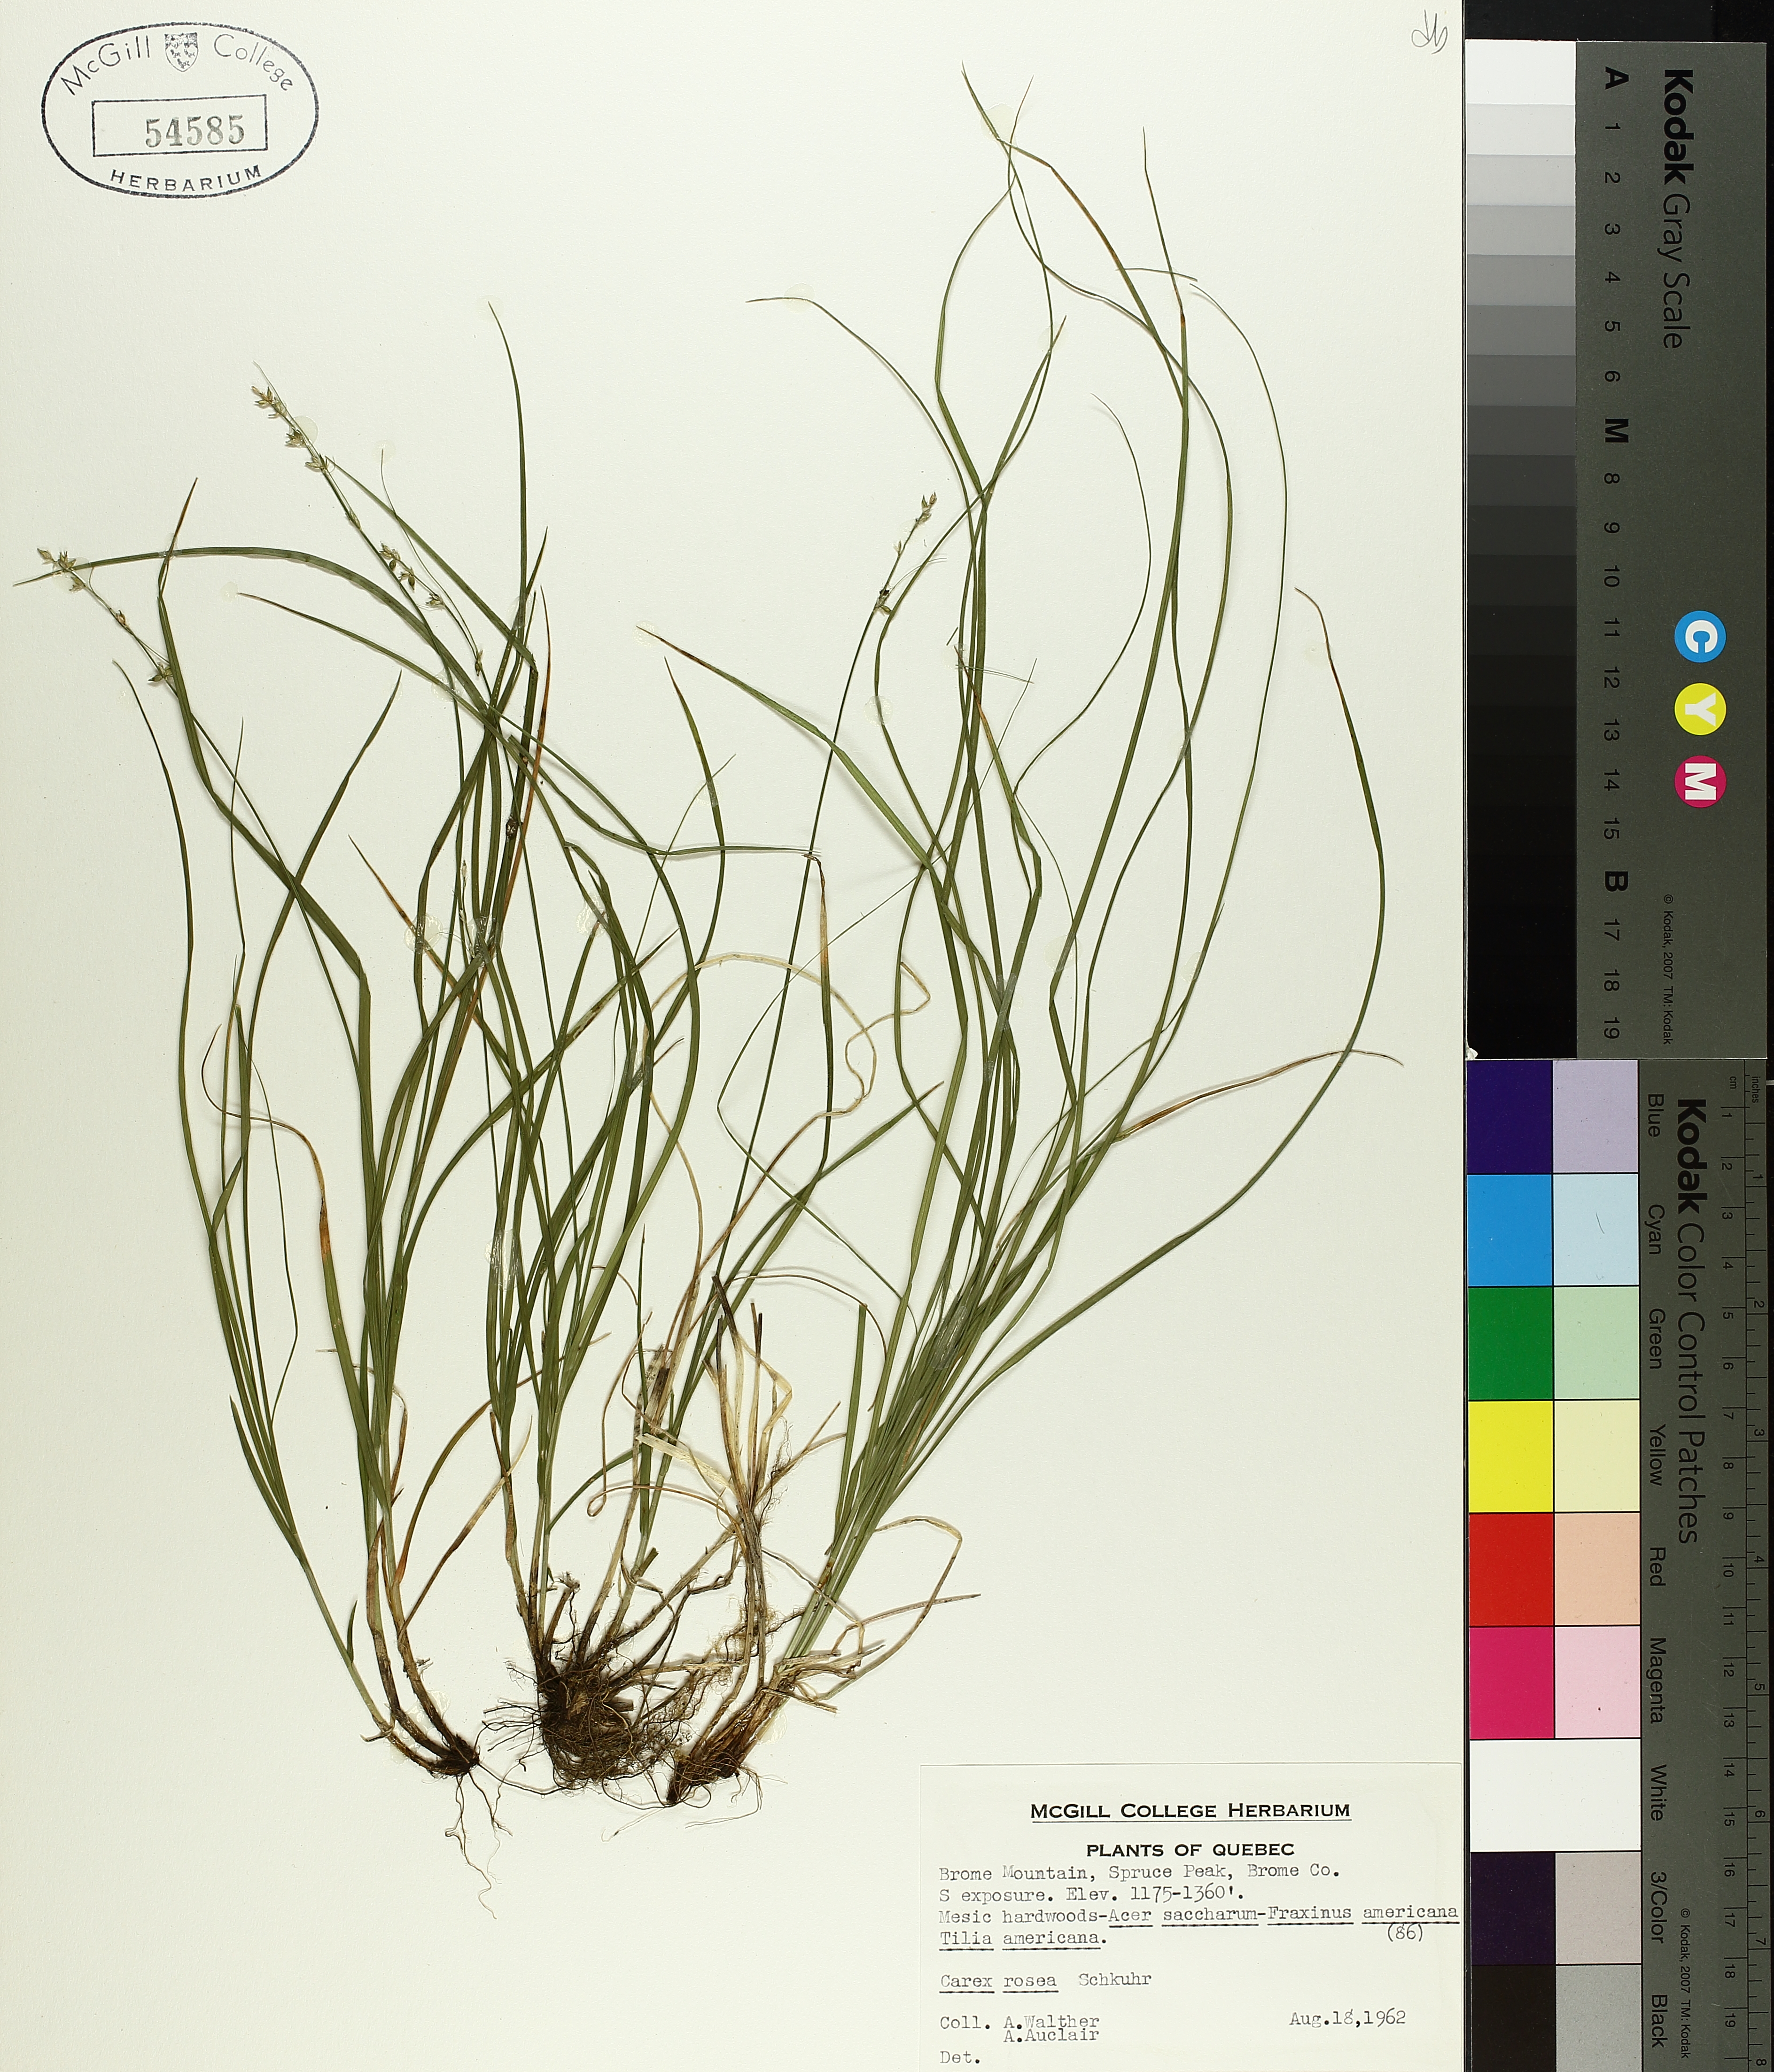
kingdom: Plantae
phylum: Tracheophyta
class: Liliopsida
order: Poales
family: Cyperaceae
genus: Carex
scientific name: Carex rosea
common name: Curly-styled wood sedge
